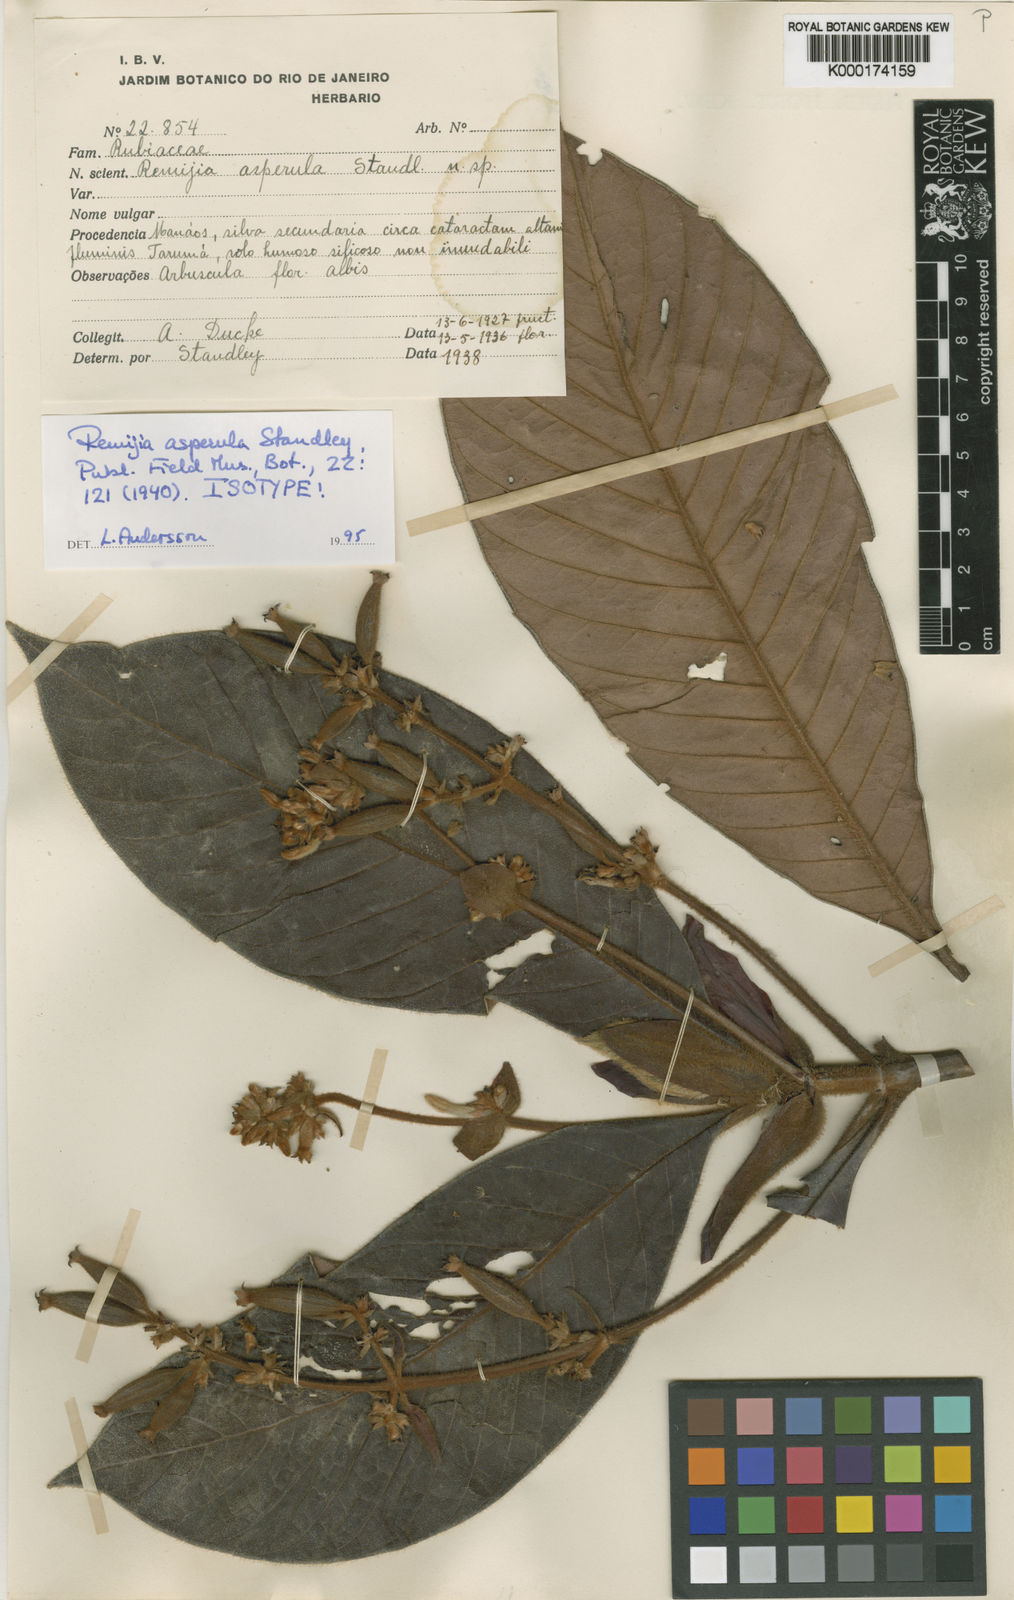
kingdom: Plantae
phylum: Tracheophyta
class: Magnoliopsida
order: Gentianales
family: Rubiaceae
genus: Remijia
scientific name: Remijia asperula
